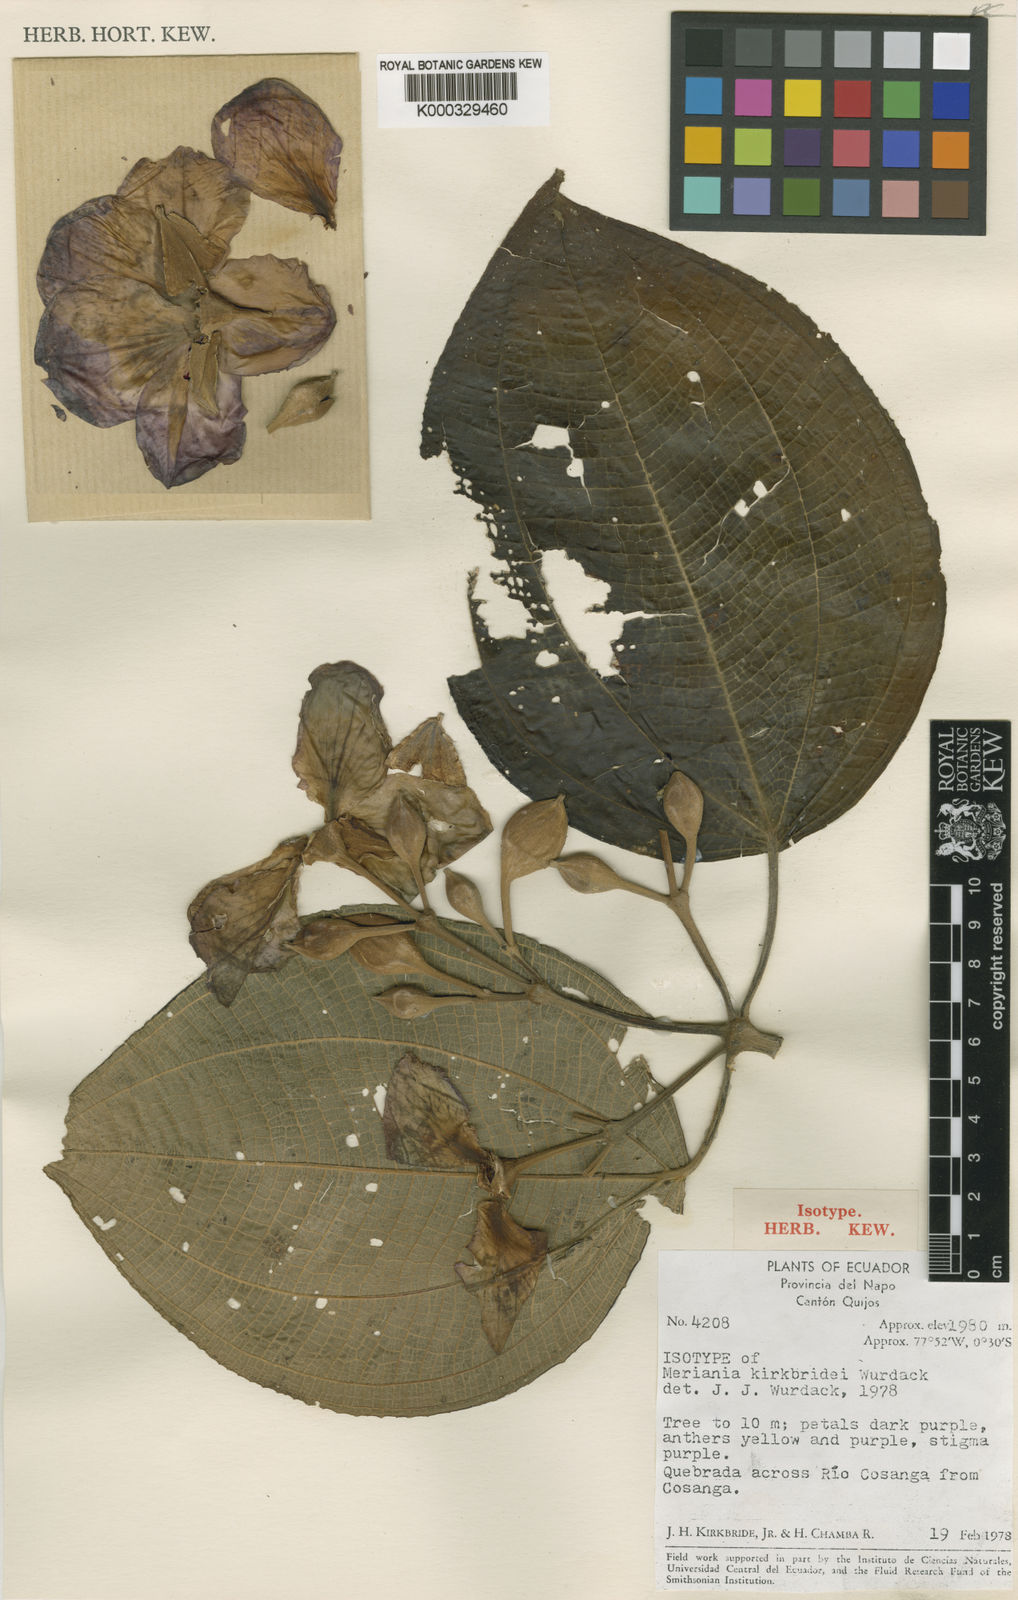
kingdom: Plantae
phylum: Tracheophyta
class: Magnoliopsida
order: Myrtales
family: Melastomataceae
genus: Meriania
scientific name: Meriania kirkbridei
